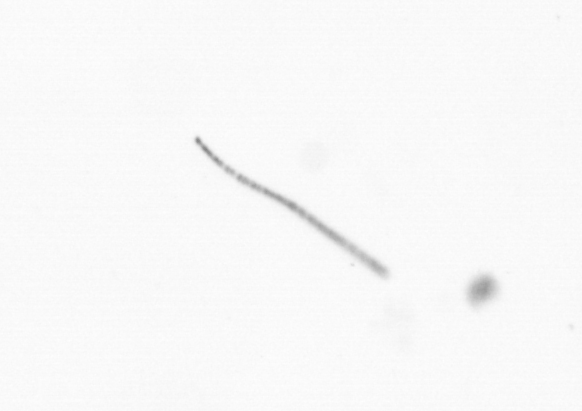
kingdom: Chromista
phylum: Ochrophyta
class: Bacillariophyceae
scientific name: Bacillariophyceae
